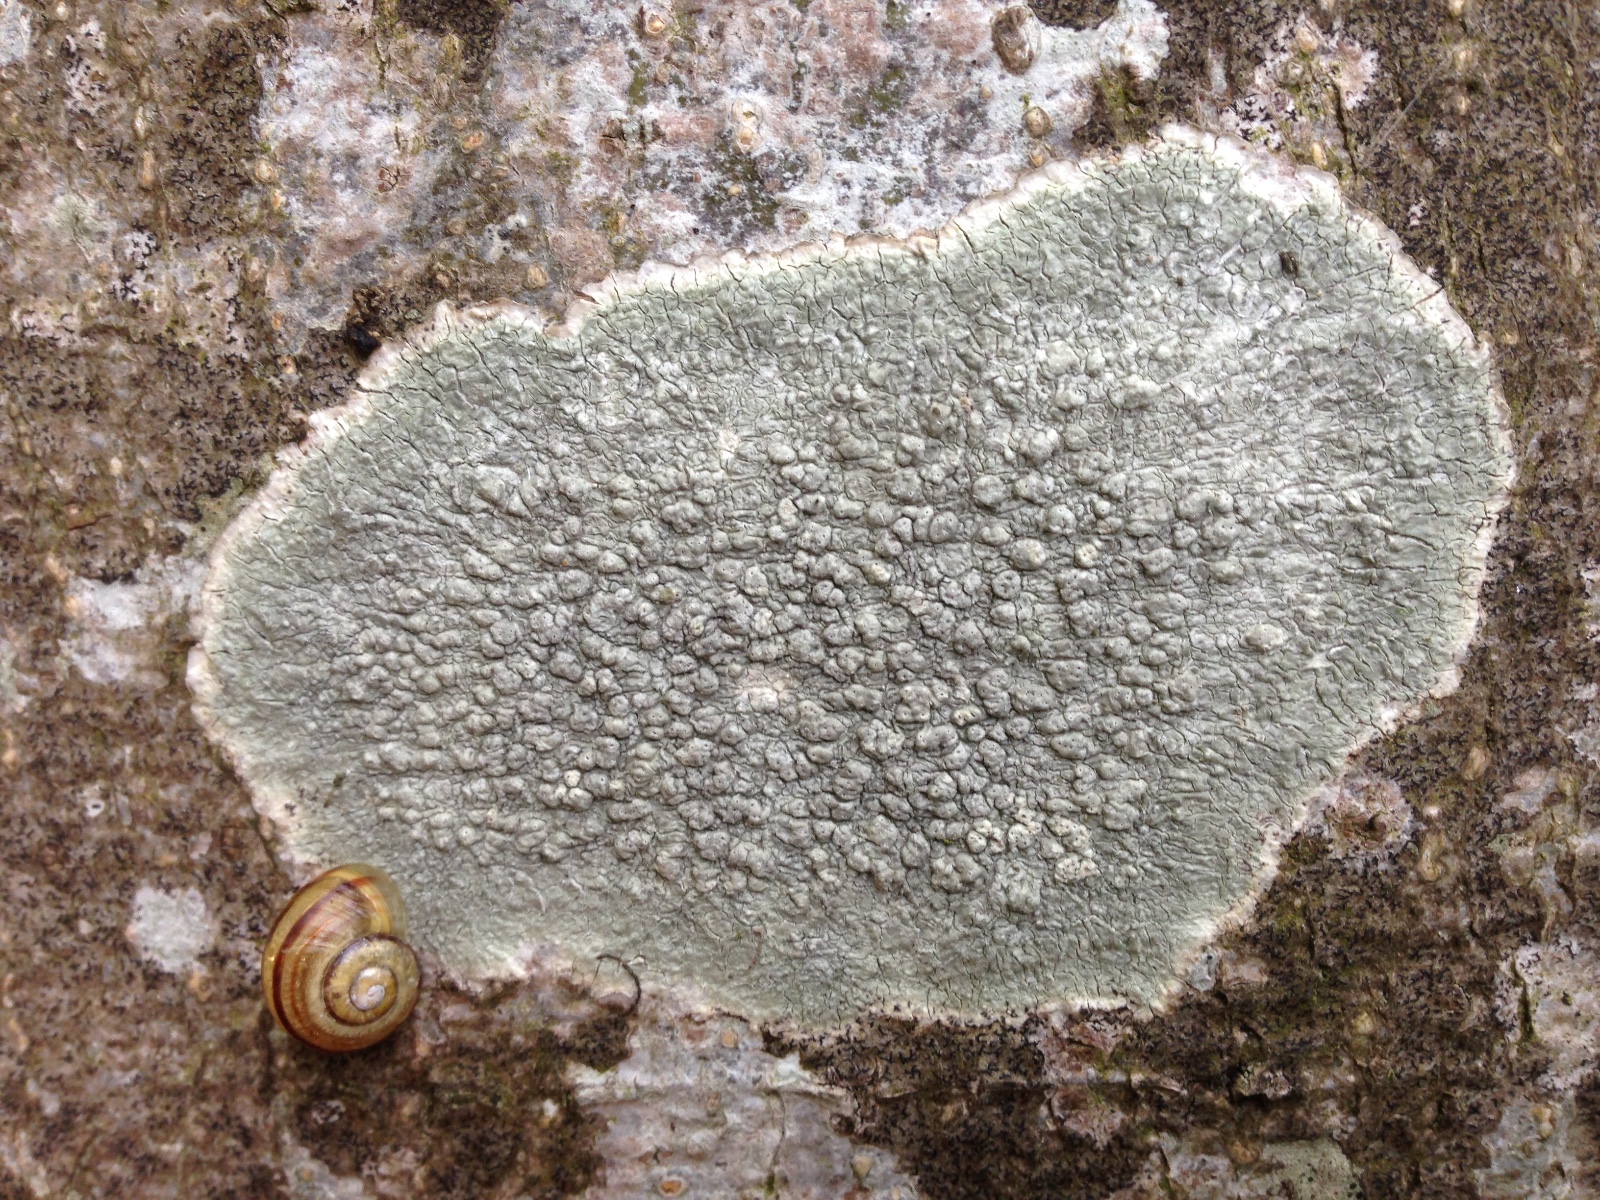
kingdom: Fungi
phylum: Ascomycota
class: Lecanoromycetes
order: Pertusariales
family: Pertusariaceae
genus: Pertusaria
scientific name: Pertusaria pertusa
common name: almindelig prikvortelav
